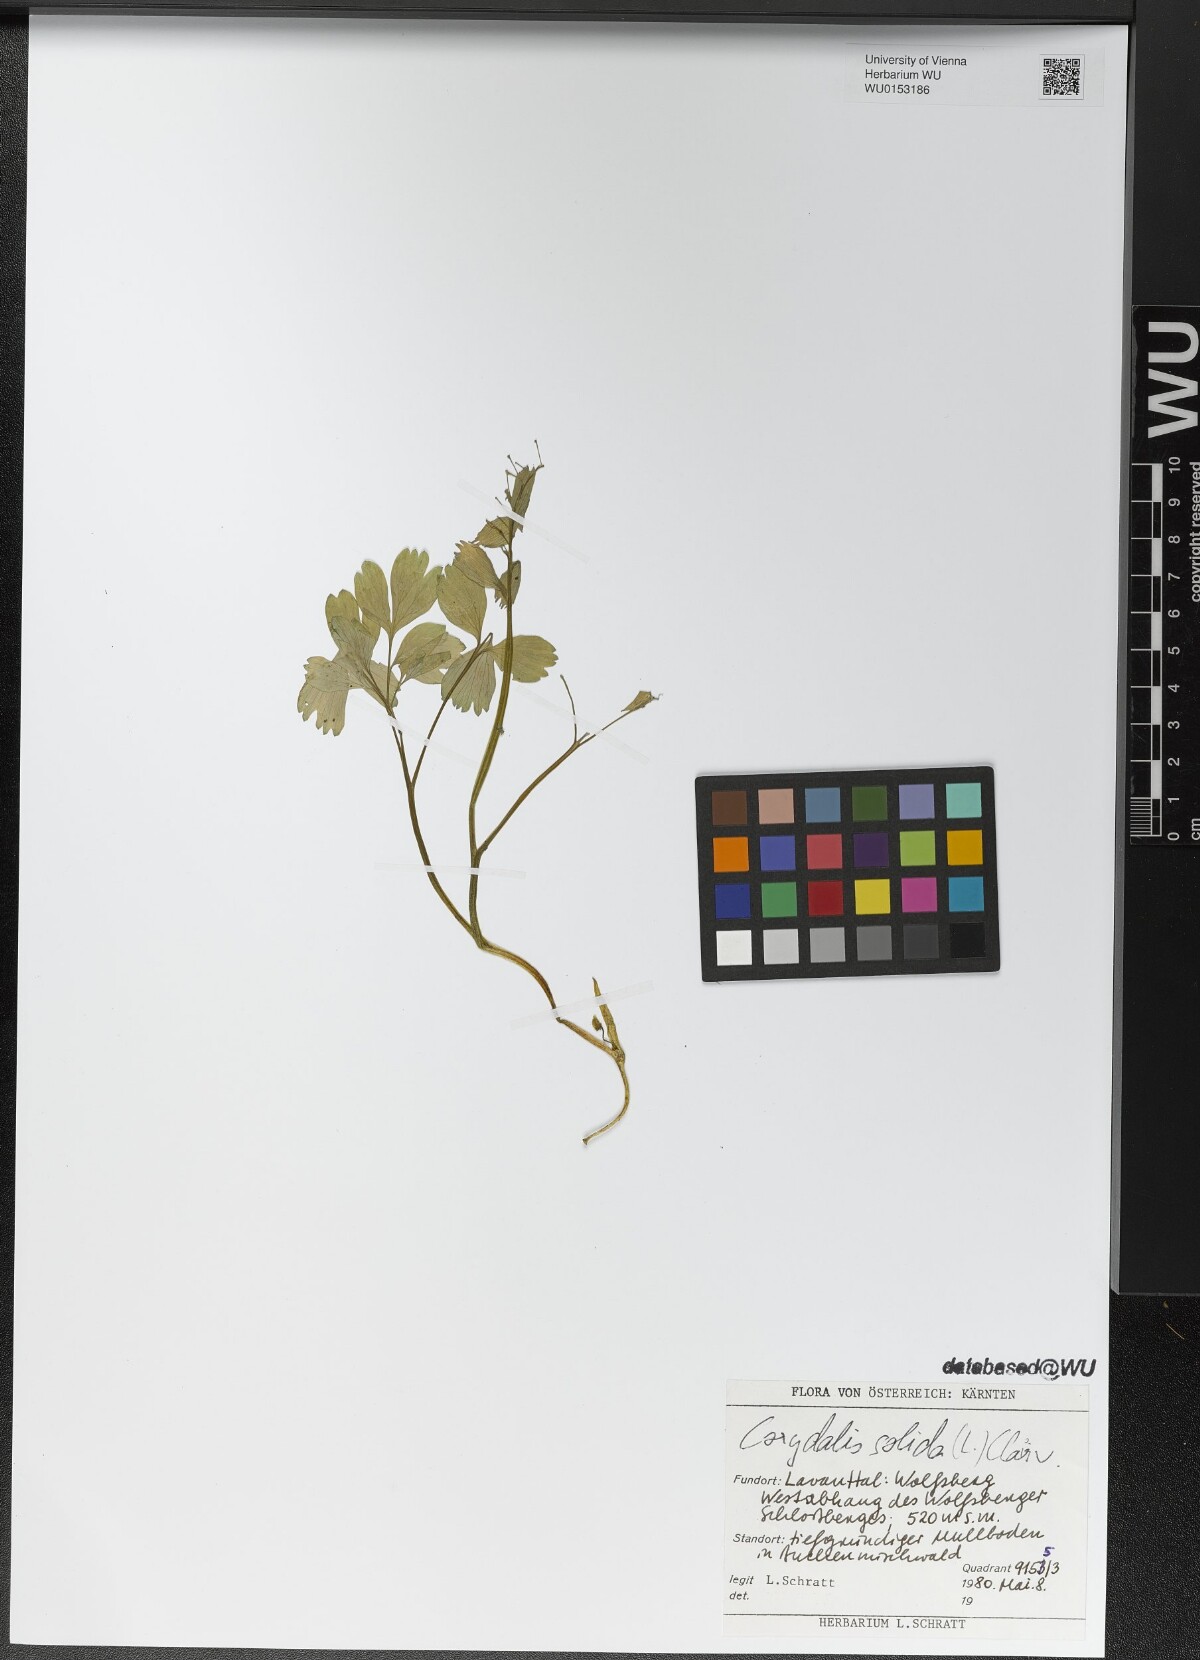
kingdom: Plantae
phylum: Tracheophyta
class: Magnoliopsida
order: Ranunculales
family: Papaveraceae
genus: Corydalis
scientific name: Corydalis solida
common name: Bird-in-a-bush
